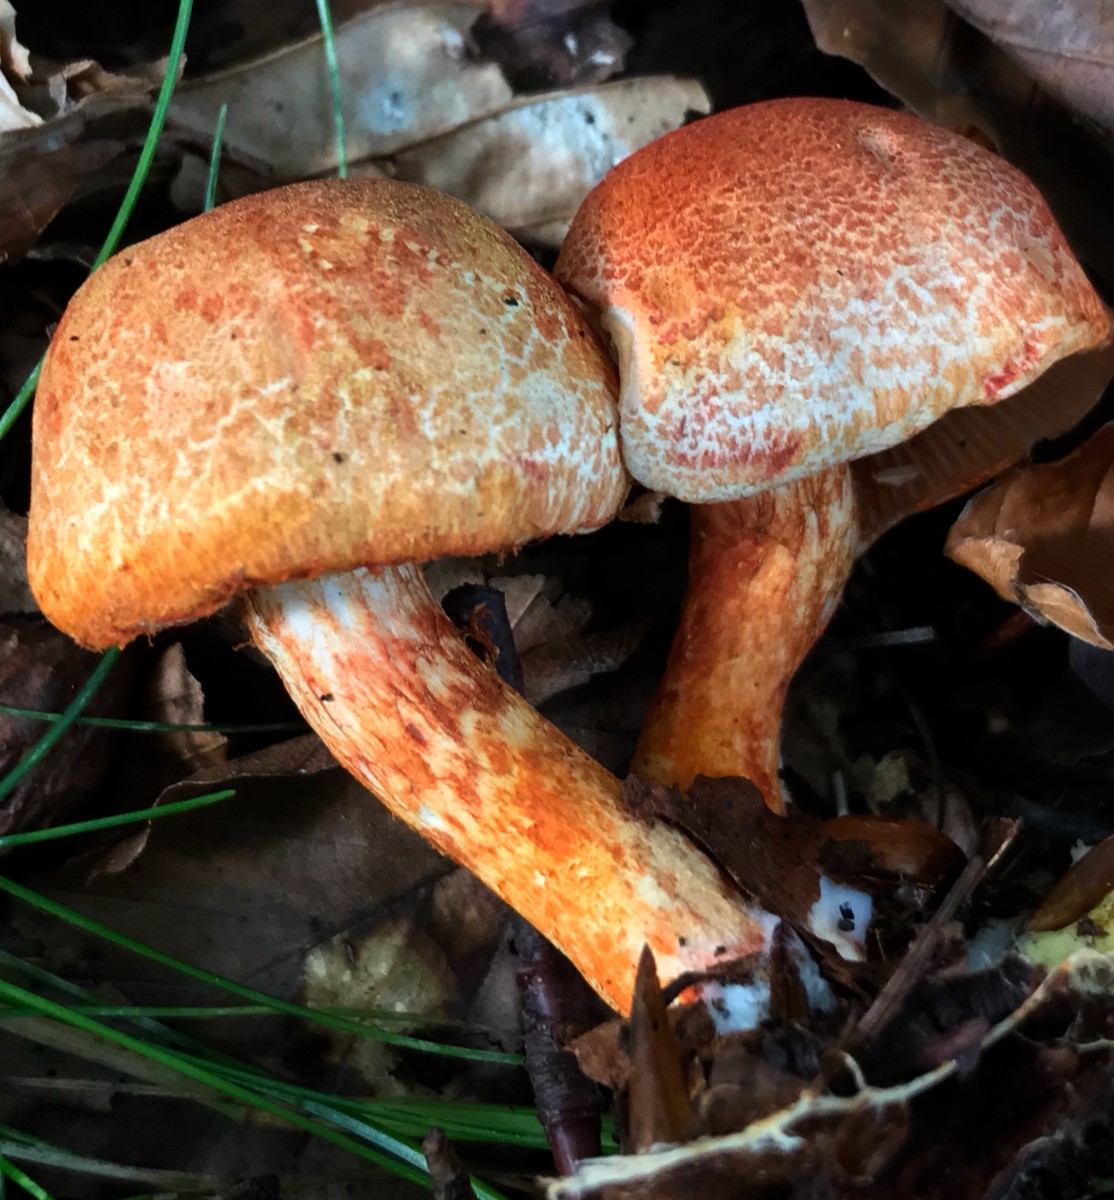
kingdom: Fungi
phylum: Basidiomycota
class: Agaricomycetes
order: Agaricales
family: Cortinariaceae
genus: Cortinarius
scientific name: Cortinarius bolaris
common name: cinnoberskællet slørhat
